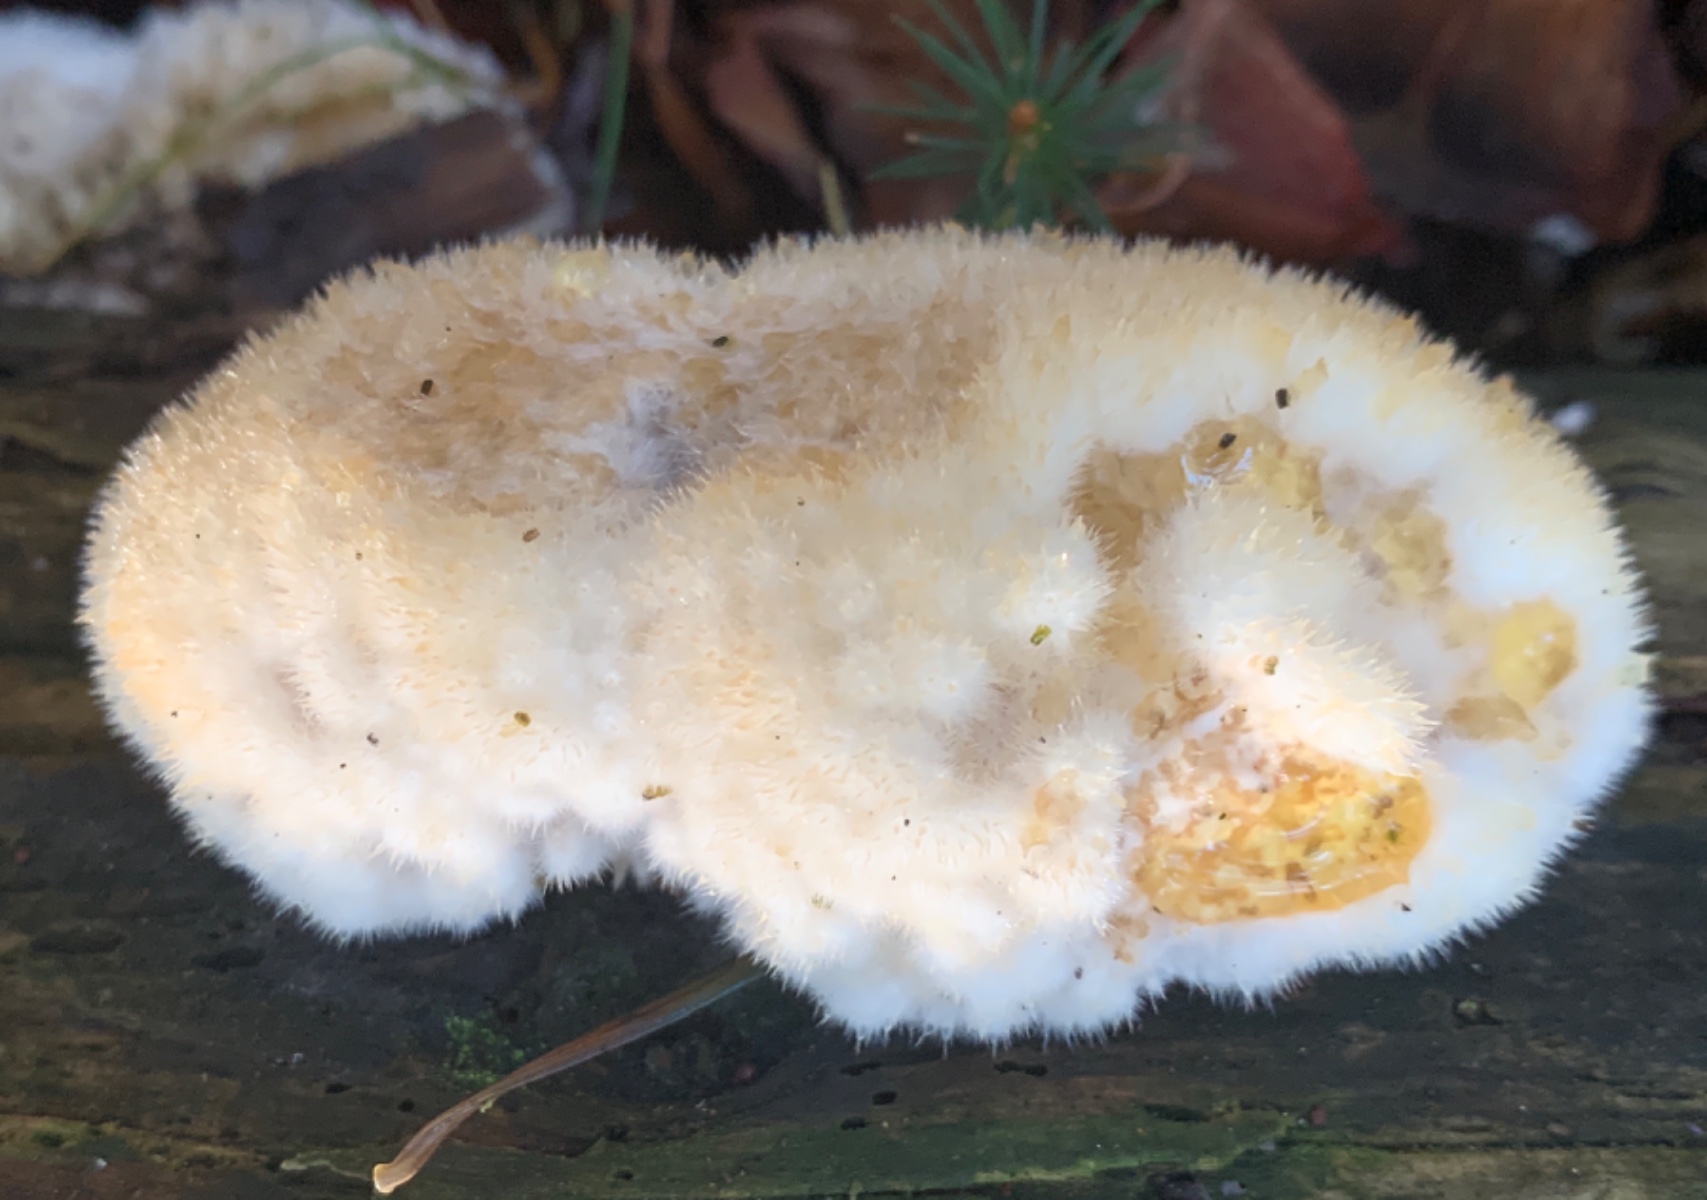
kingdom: Fungi
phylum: Basidiomycota
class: Agaricomycetes
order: Polyporales
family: Dacryobolaceae
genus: Postia
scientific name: Postia ptychogaster
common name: støvende kødporesvamp
